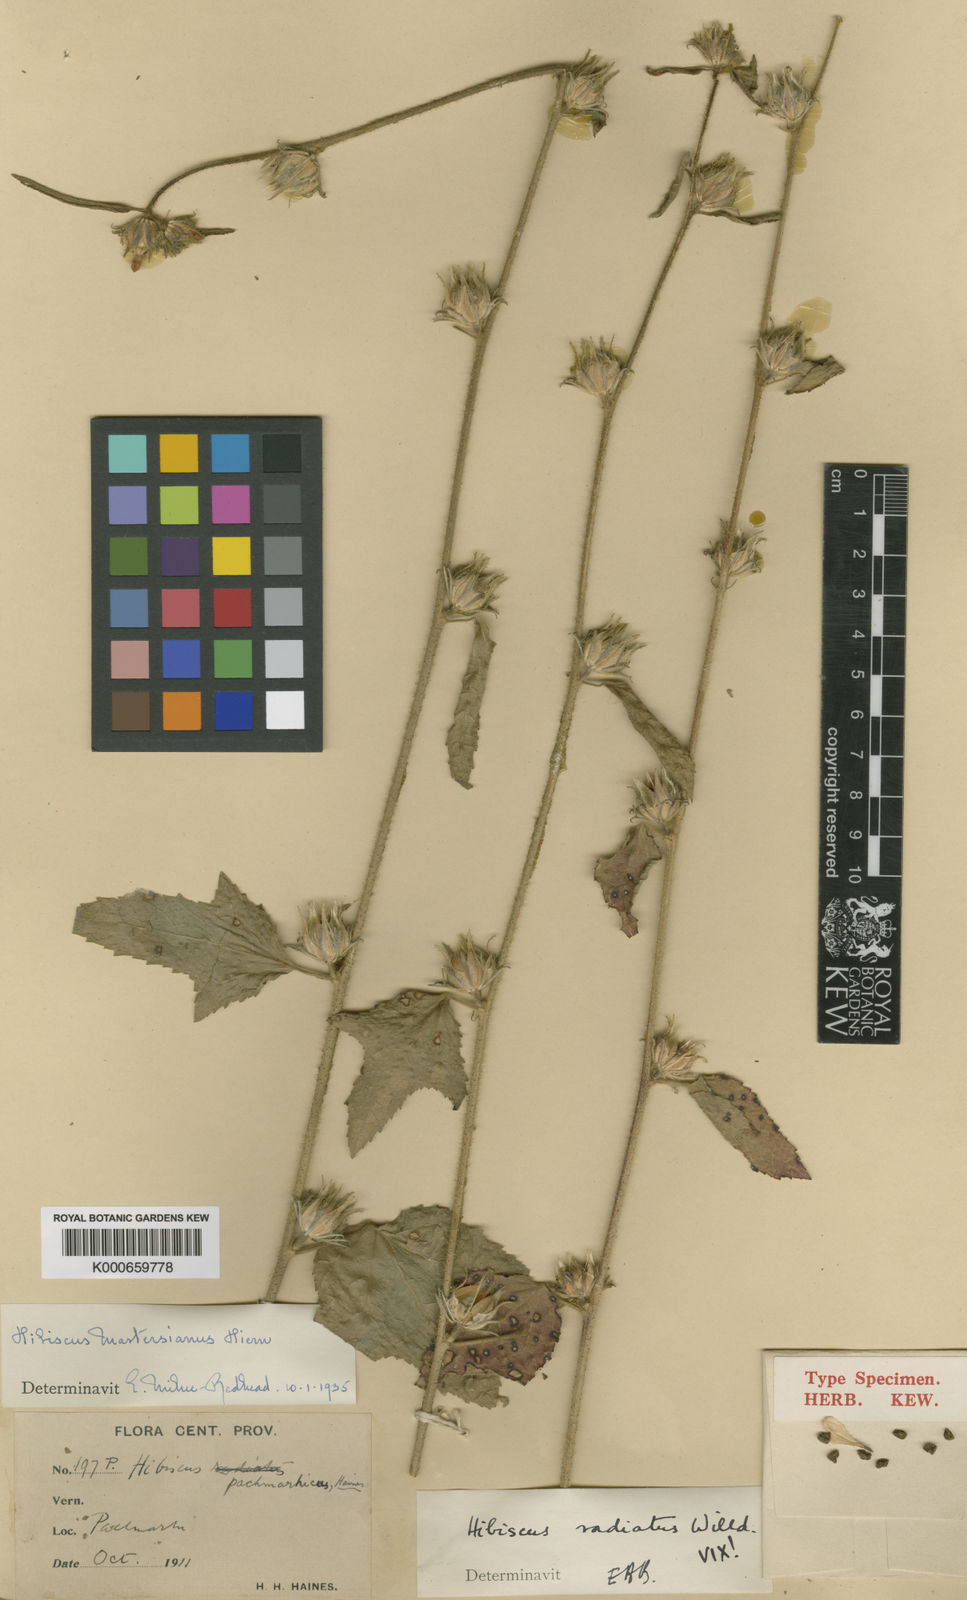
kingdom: Plantae
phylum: Tracheophyta
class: Magnoliopsida
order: Malvales
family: Malvaceae
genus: Hibiscus
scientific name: Hibiscus mastersianus
